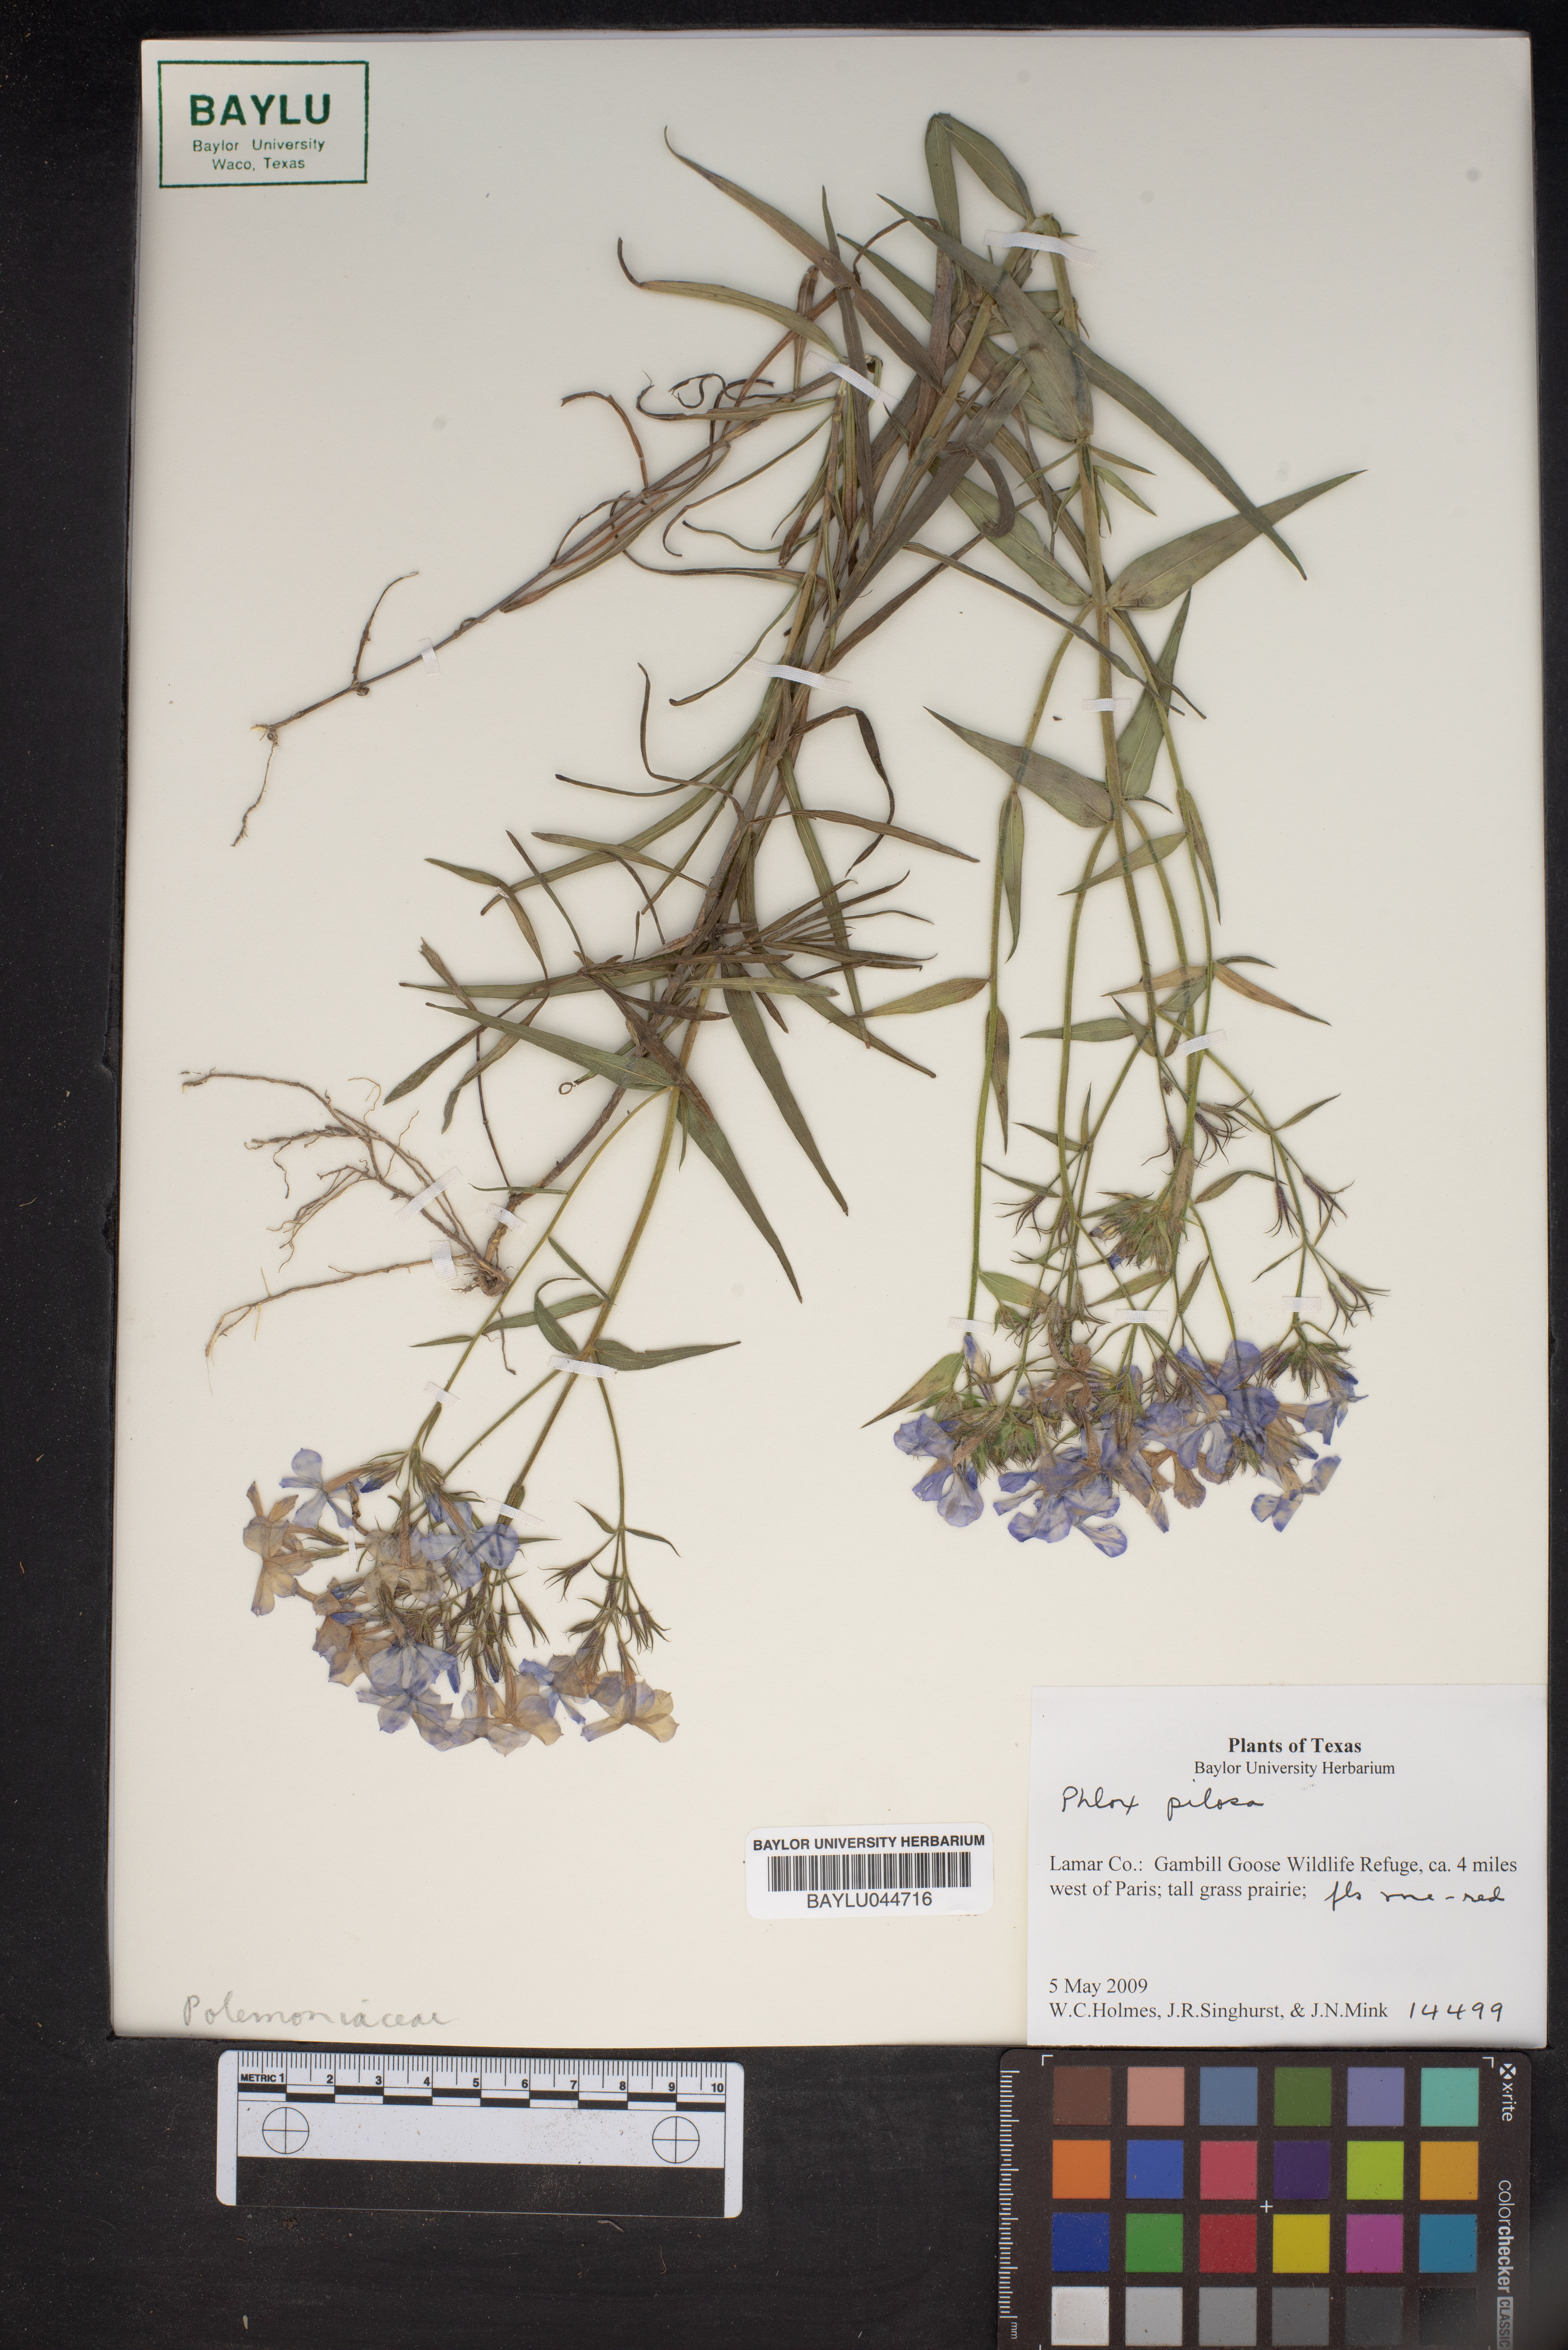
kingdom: Plantae
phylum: Tracheophyta
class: Magnoliopsida
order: Ericales
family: Polemoniaceae
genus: Phlox
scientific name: Phlox pilosa
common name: Prairie phlox
